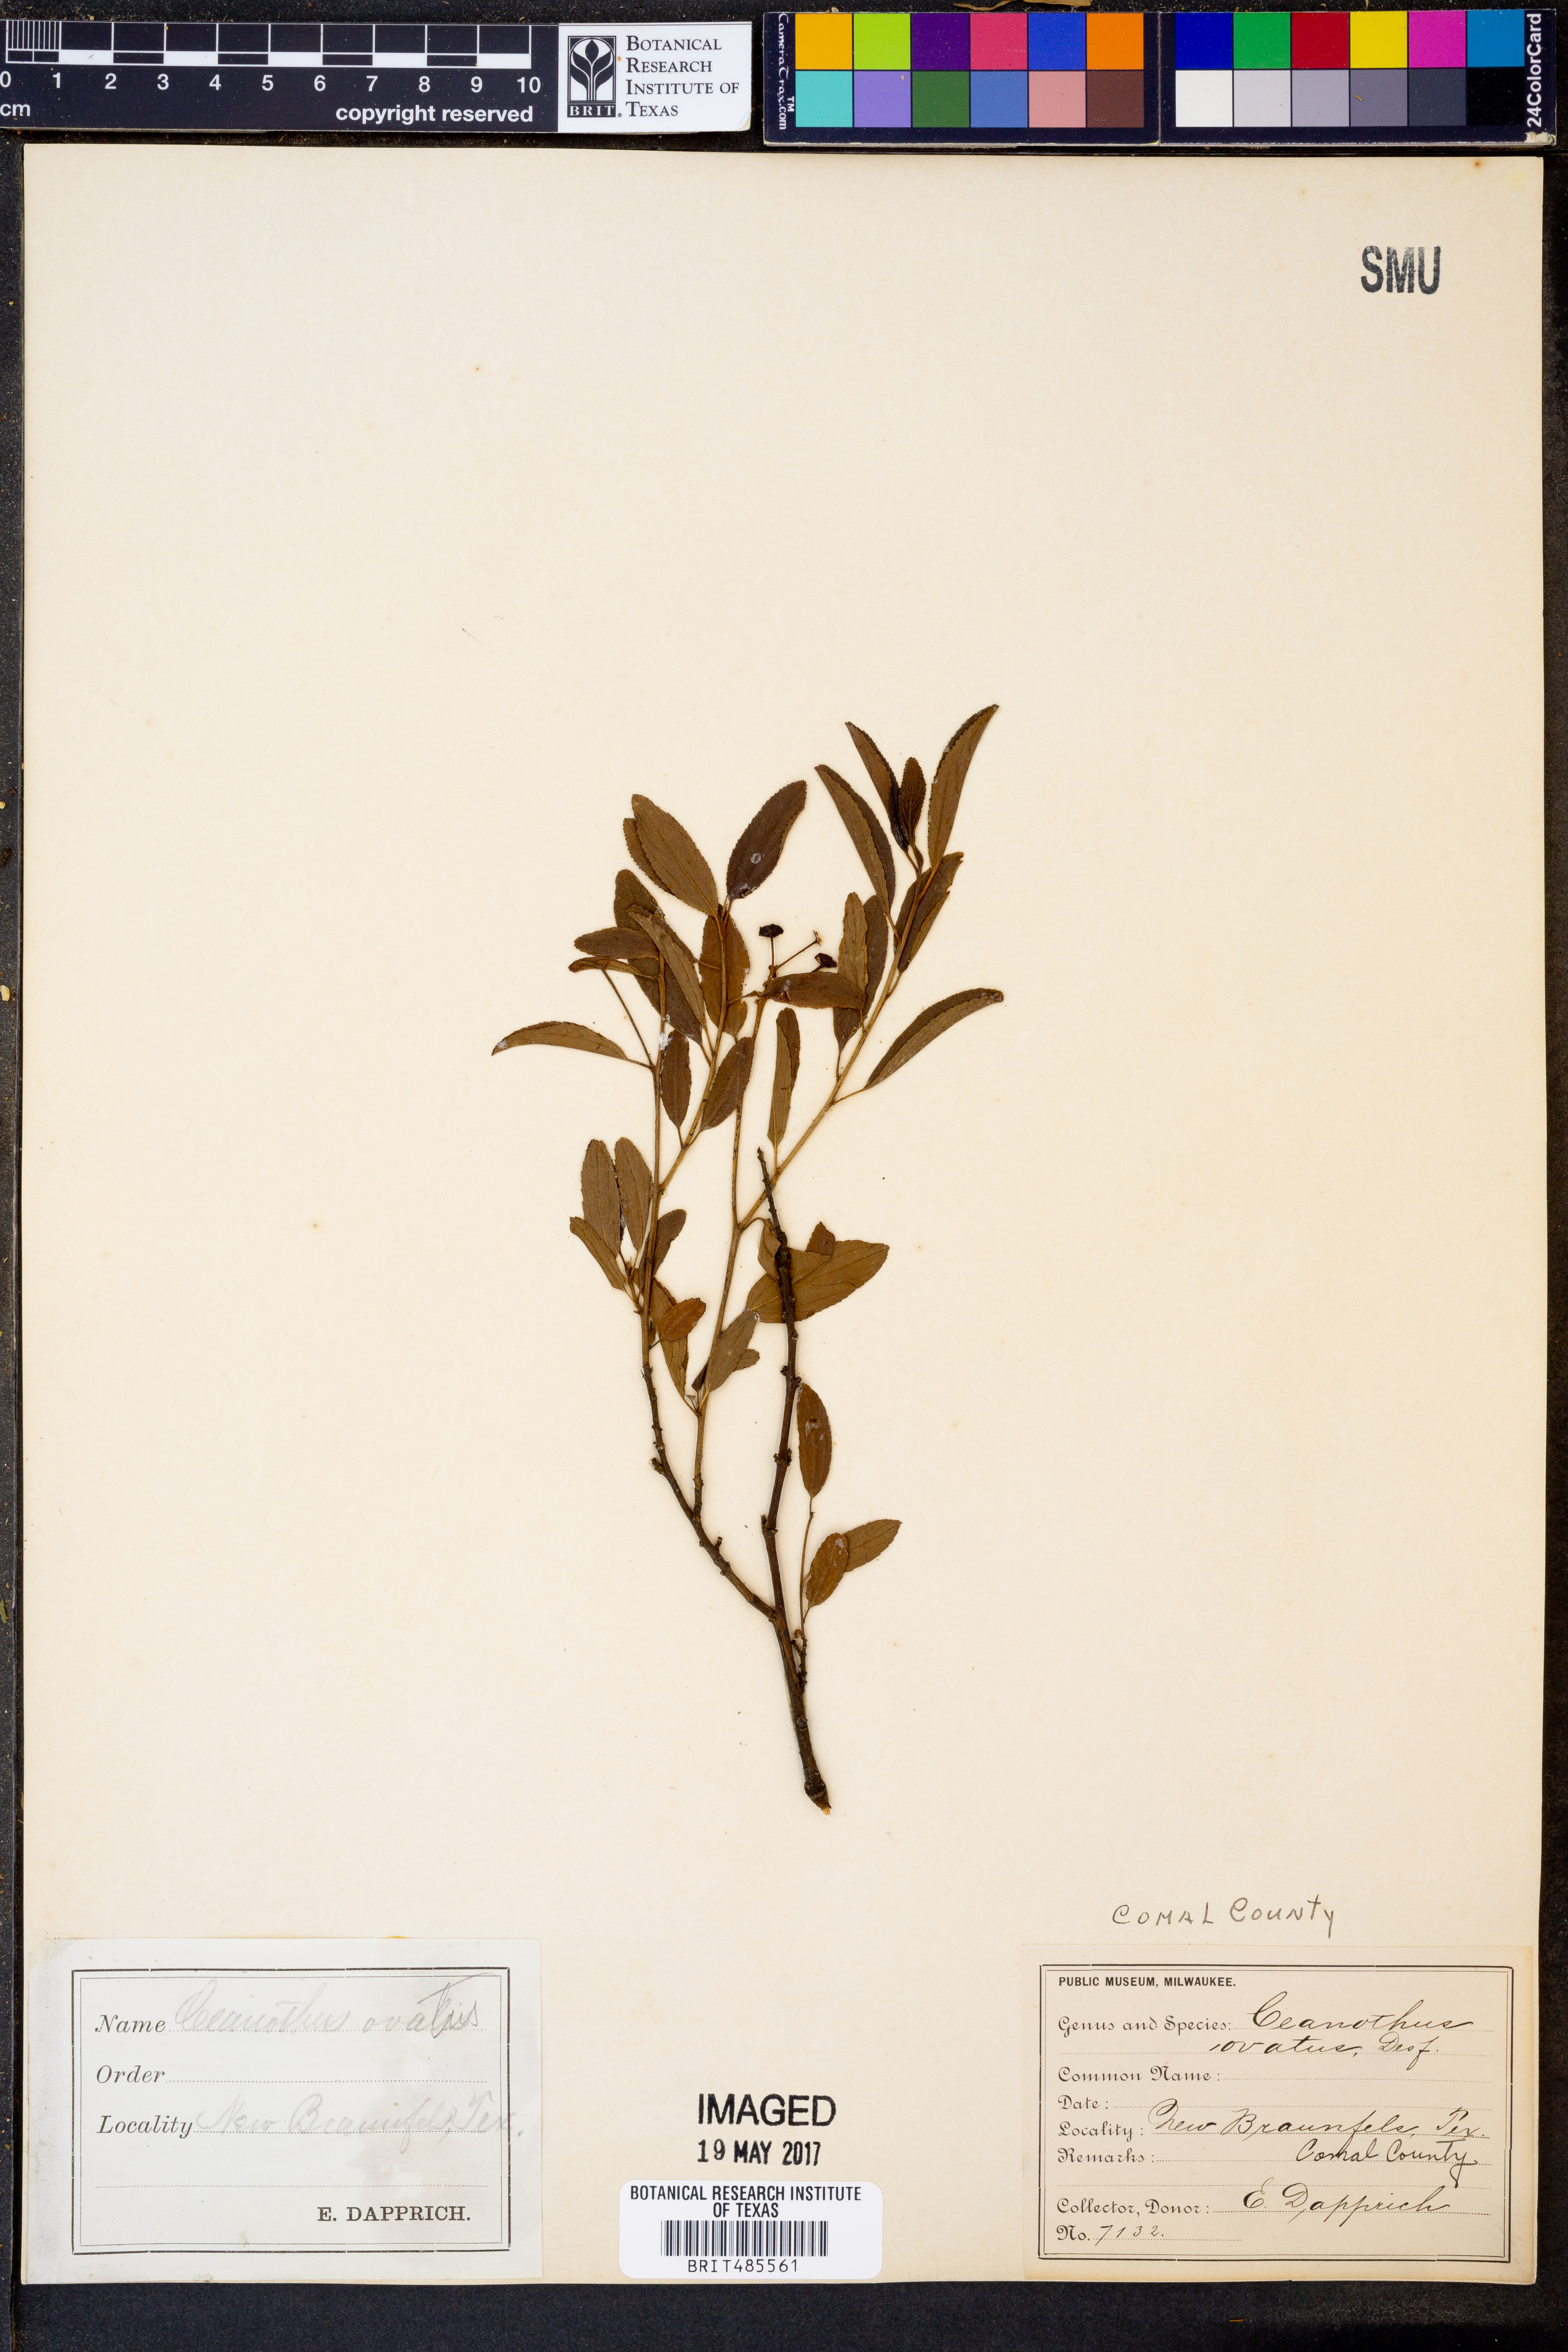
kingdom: Plantae
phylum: Tracheophyta
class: Magnoliopsida
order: Rosales
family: Rhamnaceae
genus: Ceanothus
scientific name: Ceanothus herbaceus
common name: Inland ceanothus
